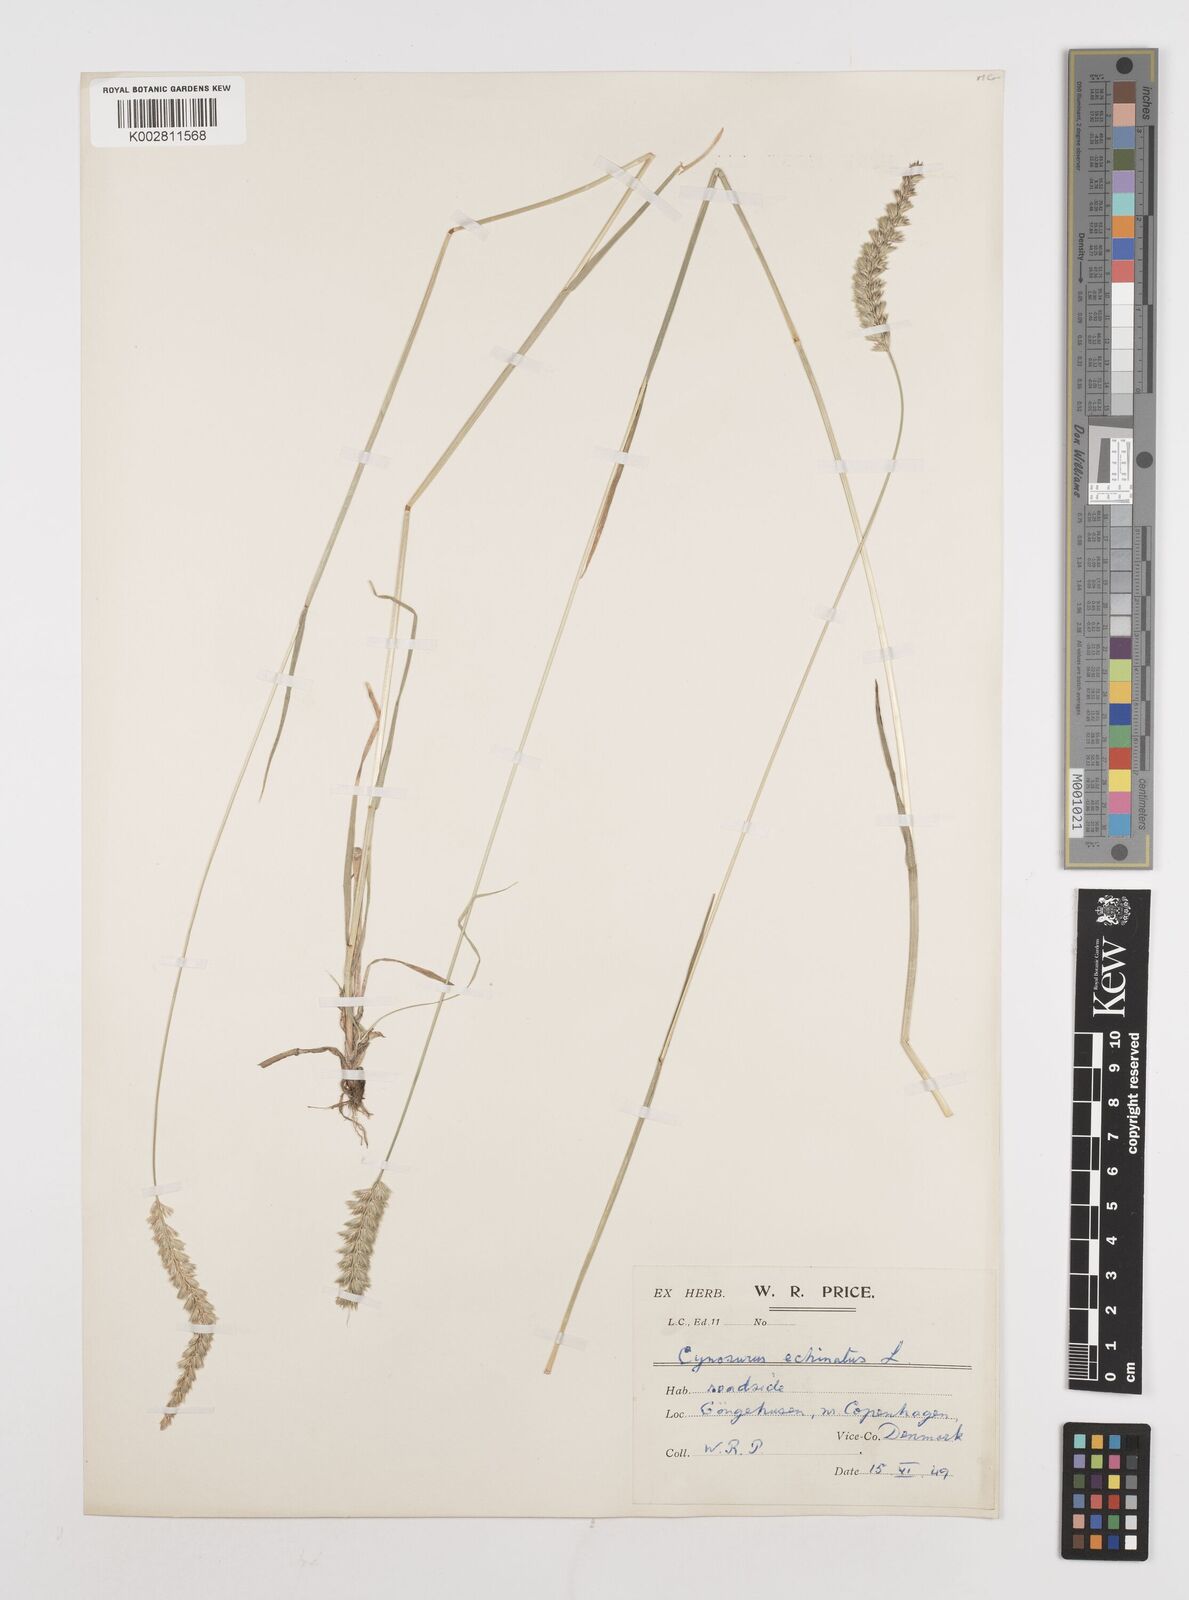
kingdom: Plantae
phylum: Tracheophyta
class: Liliopsida
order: Poales
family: Poaceae
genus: Cynosurus
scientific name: Cynosurus cristatus
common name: Crested dog's-tail
